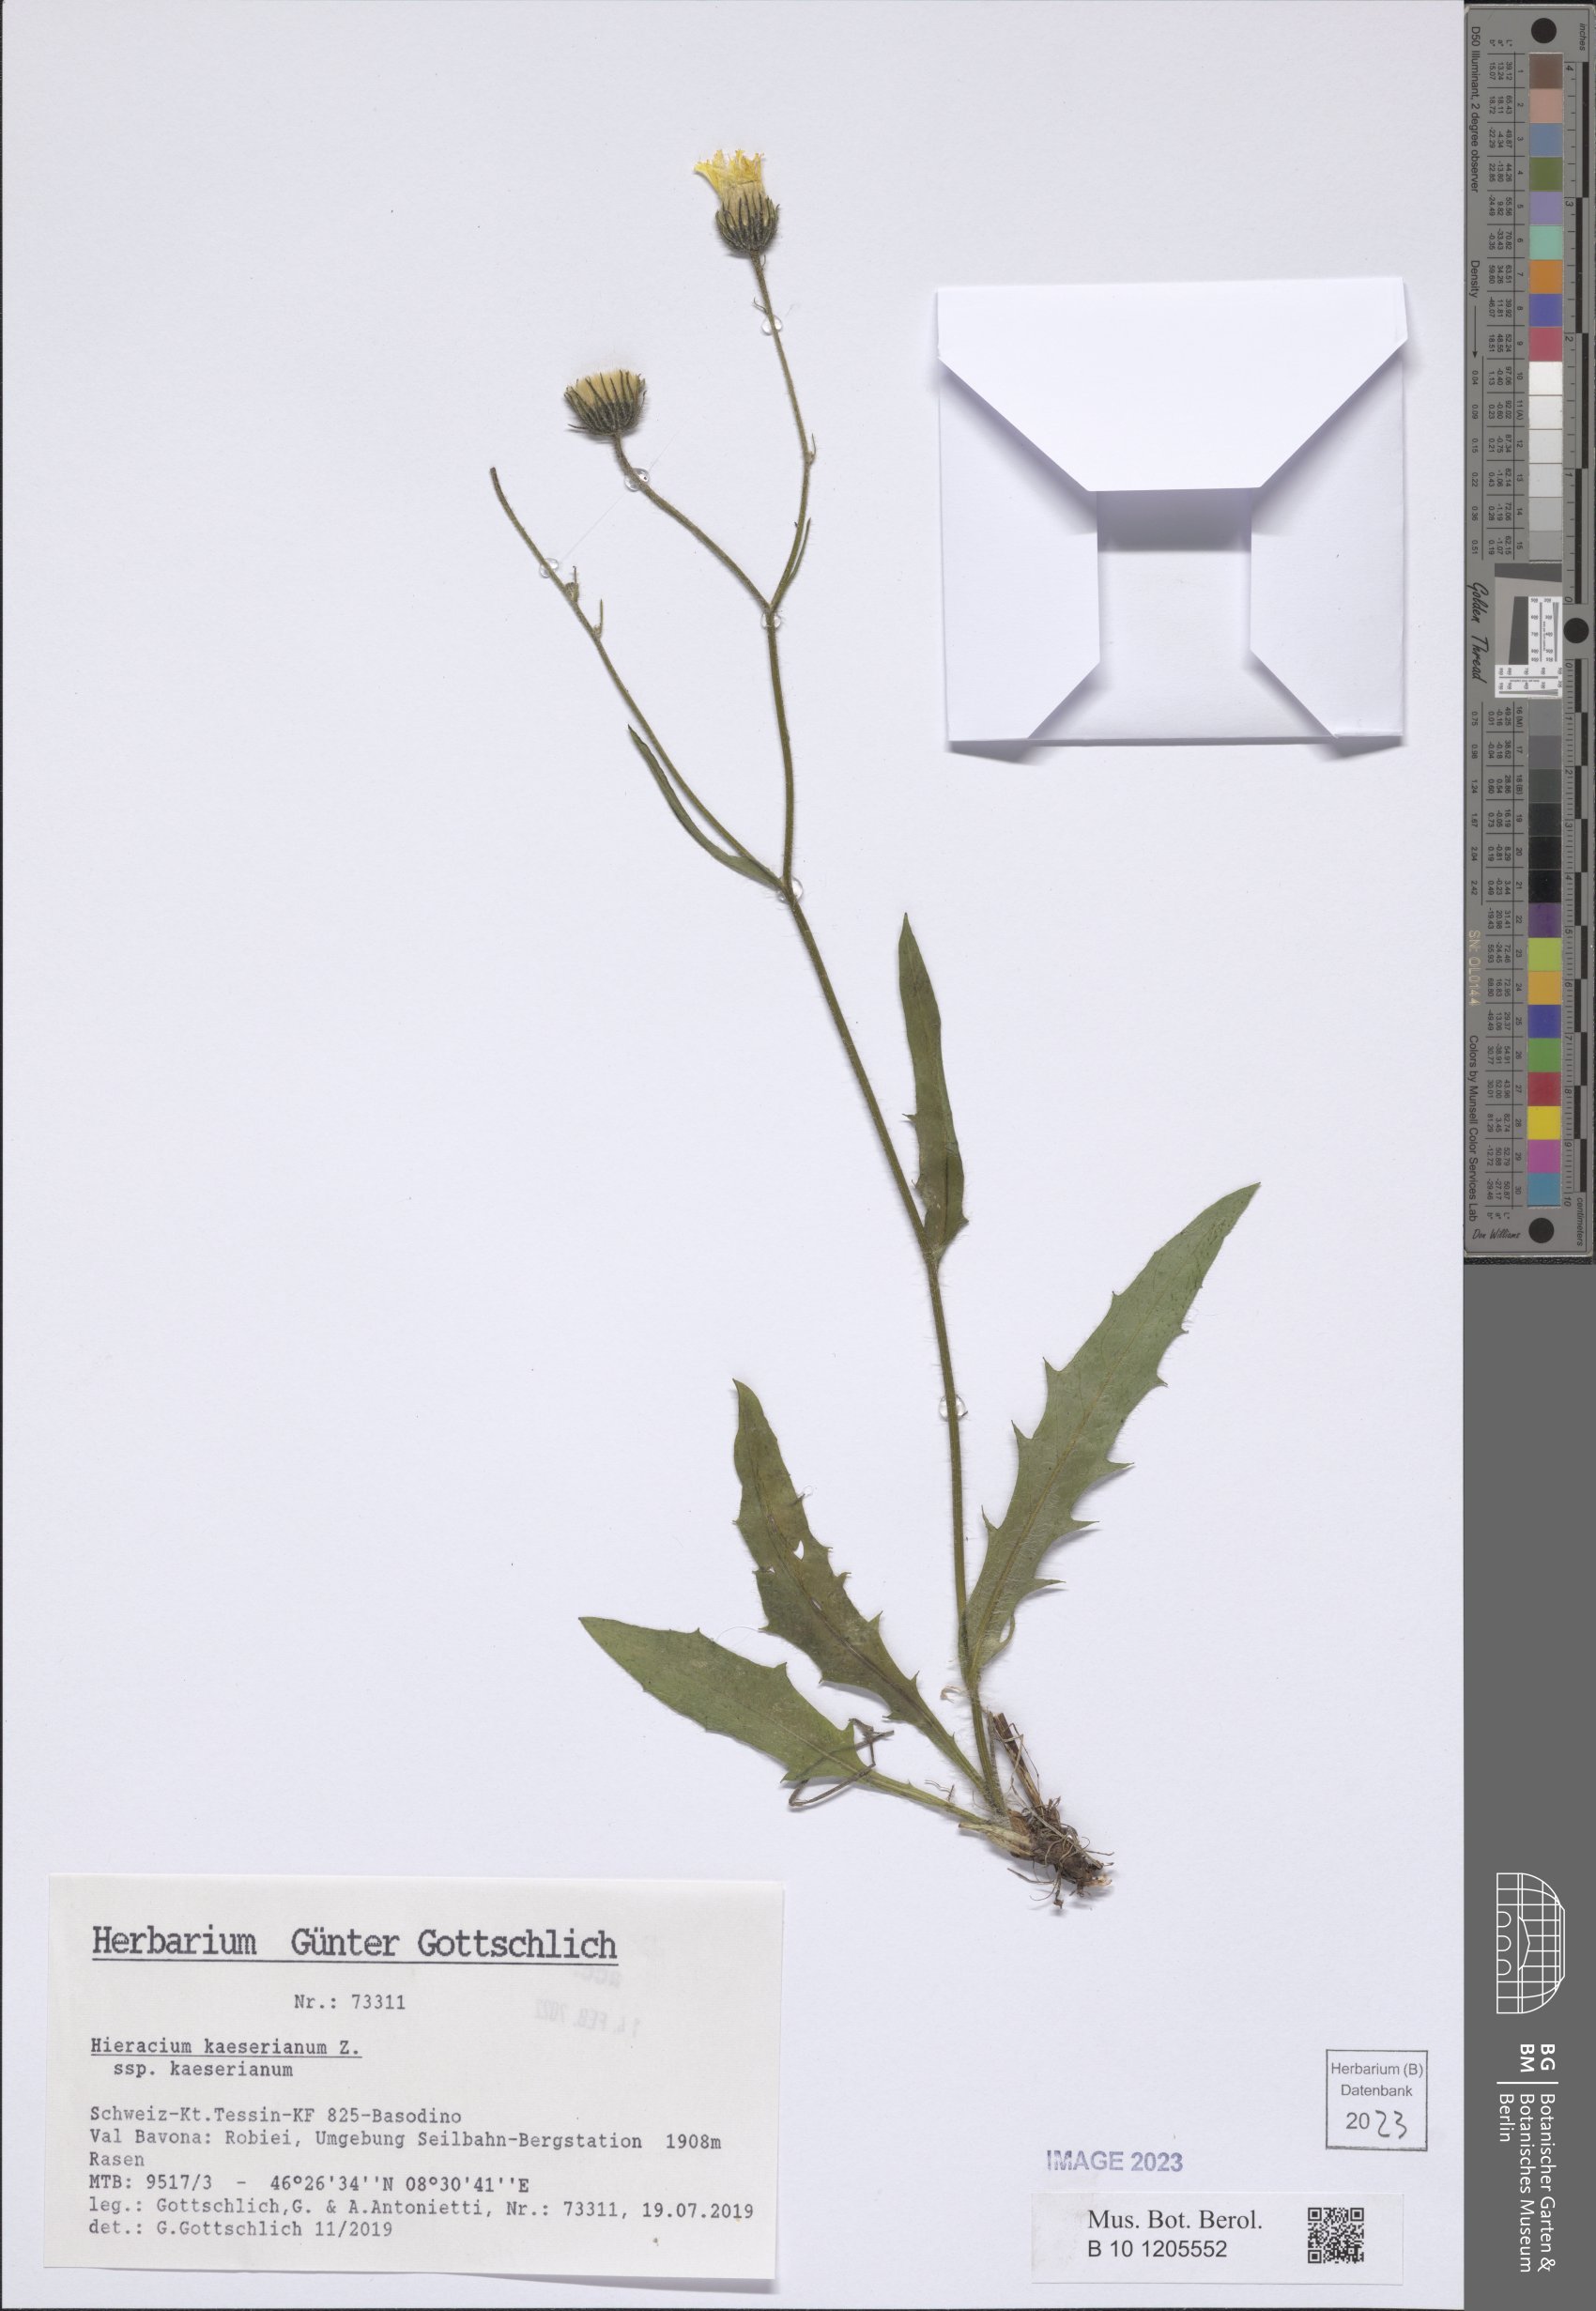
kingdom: Plantae
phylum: Tracheophyta
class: Magnoliopsida
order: Asterales
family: Asteraceae
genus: Hieracium
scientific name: Hieracium kaeserianum
